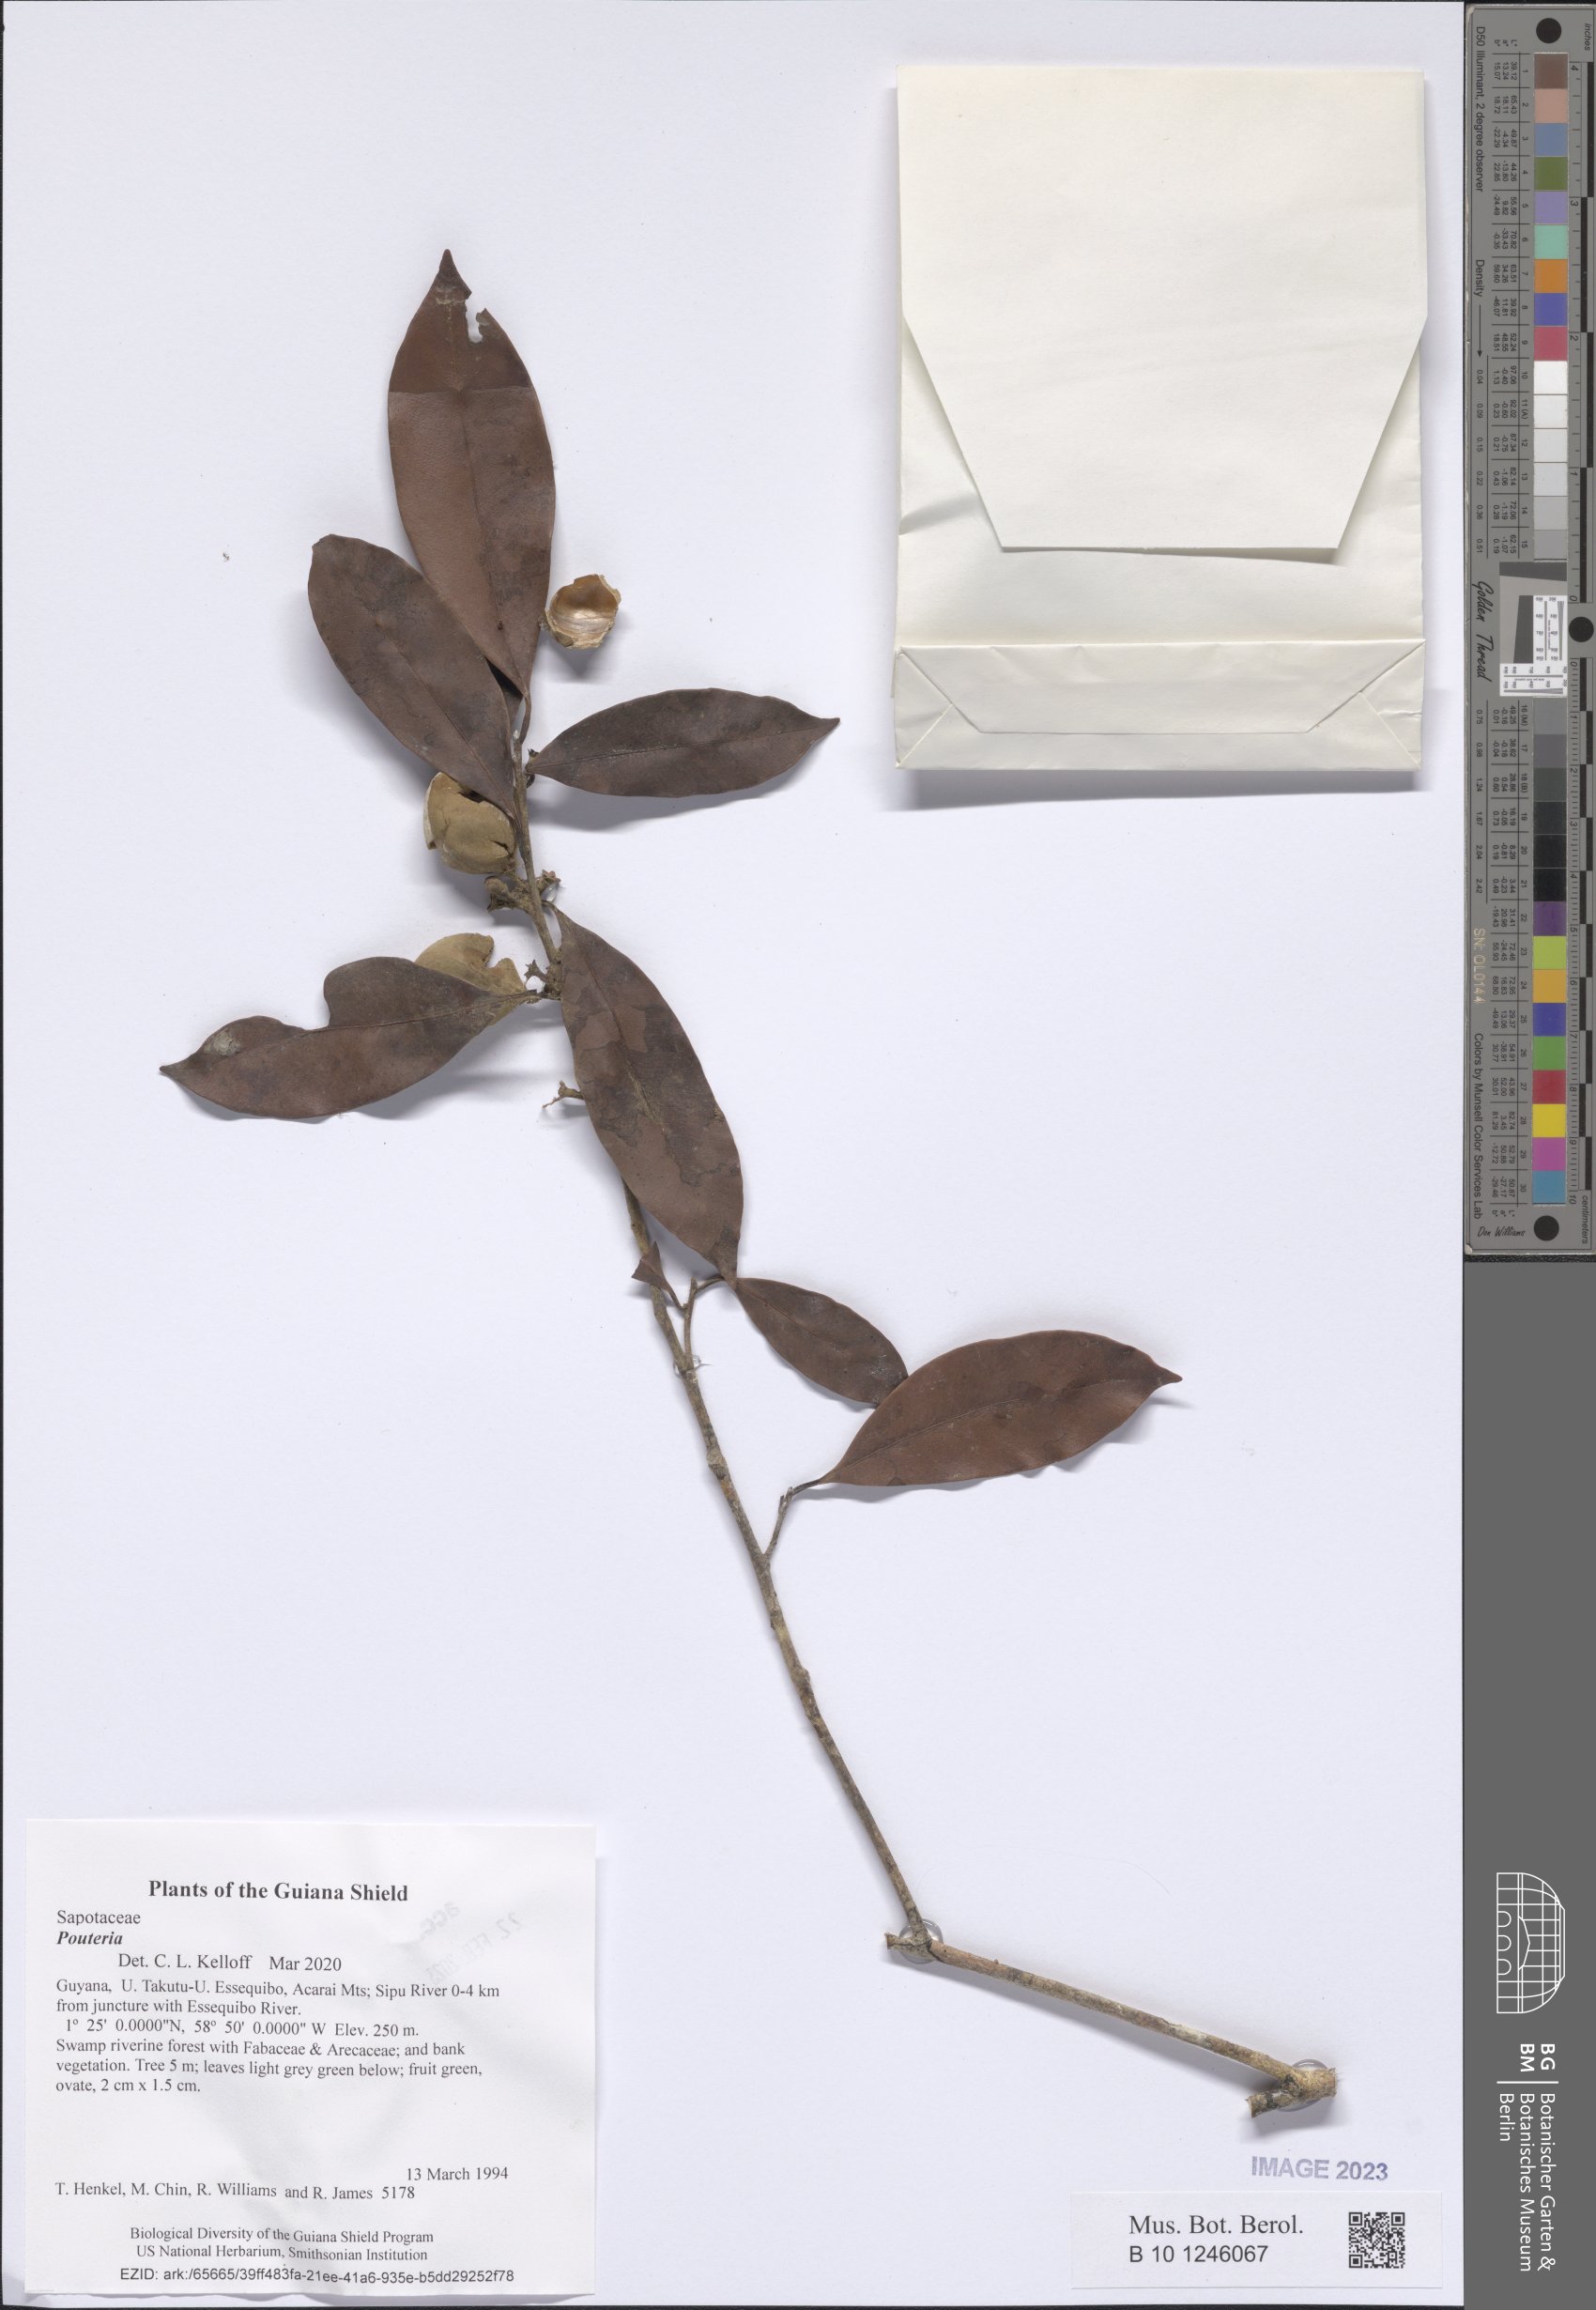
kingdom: Plantae
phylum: Tracheophyta
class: Magnoliopsida
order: Ericales
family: Sapotaceae
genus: Pouteria
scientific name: Pouteria
